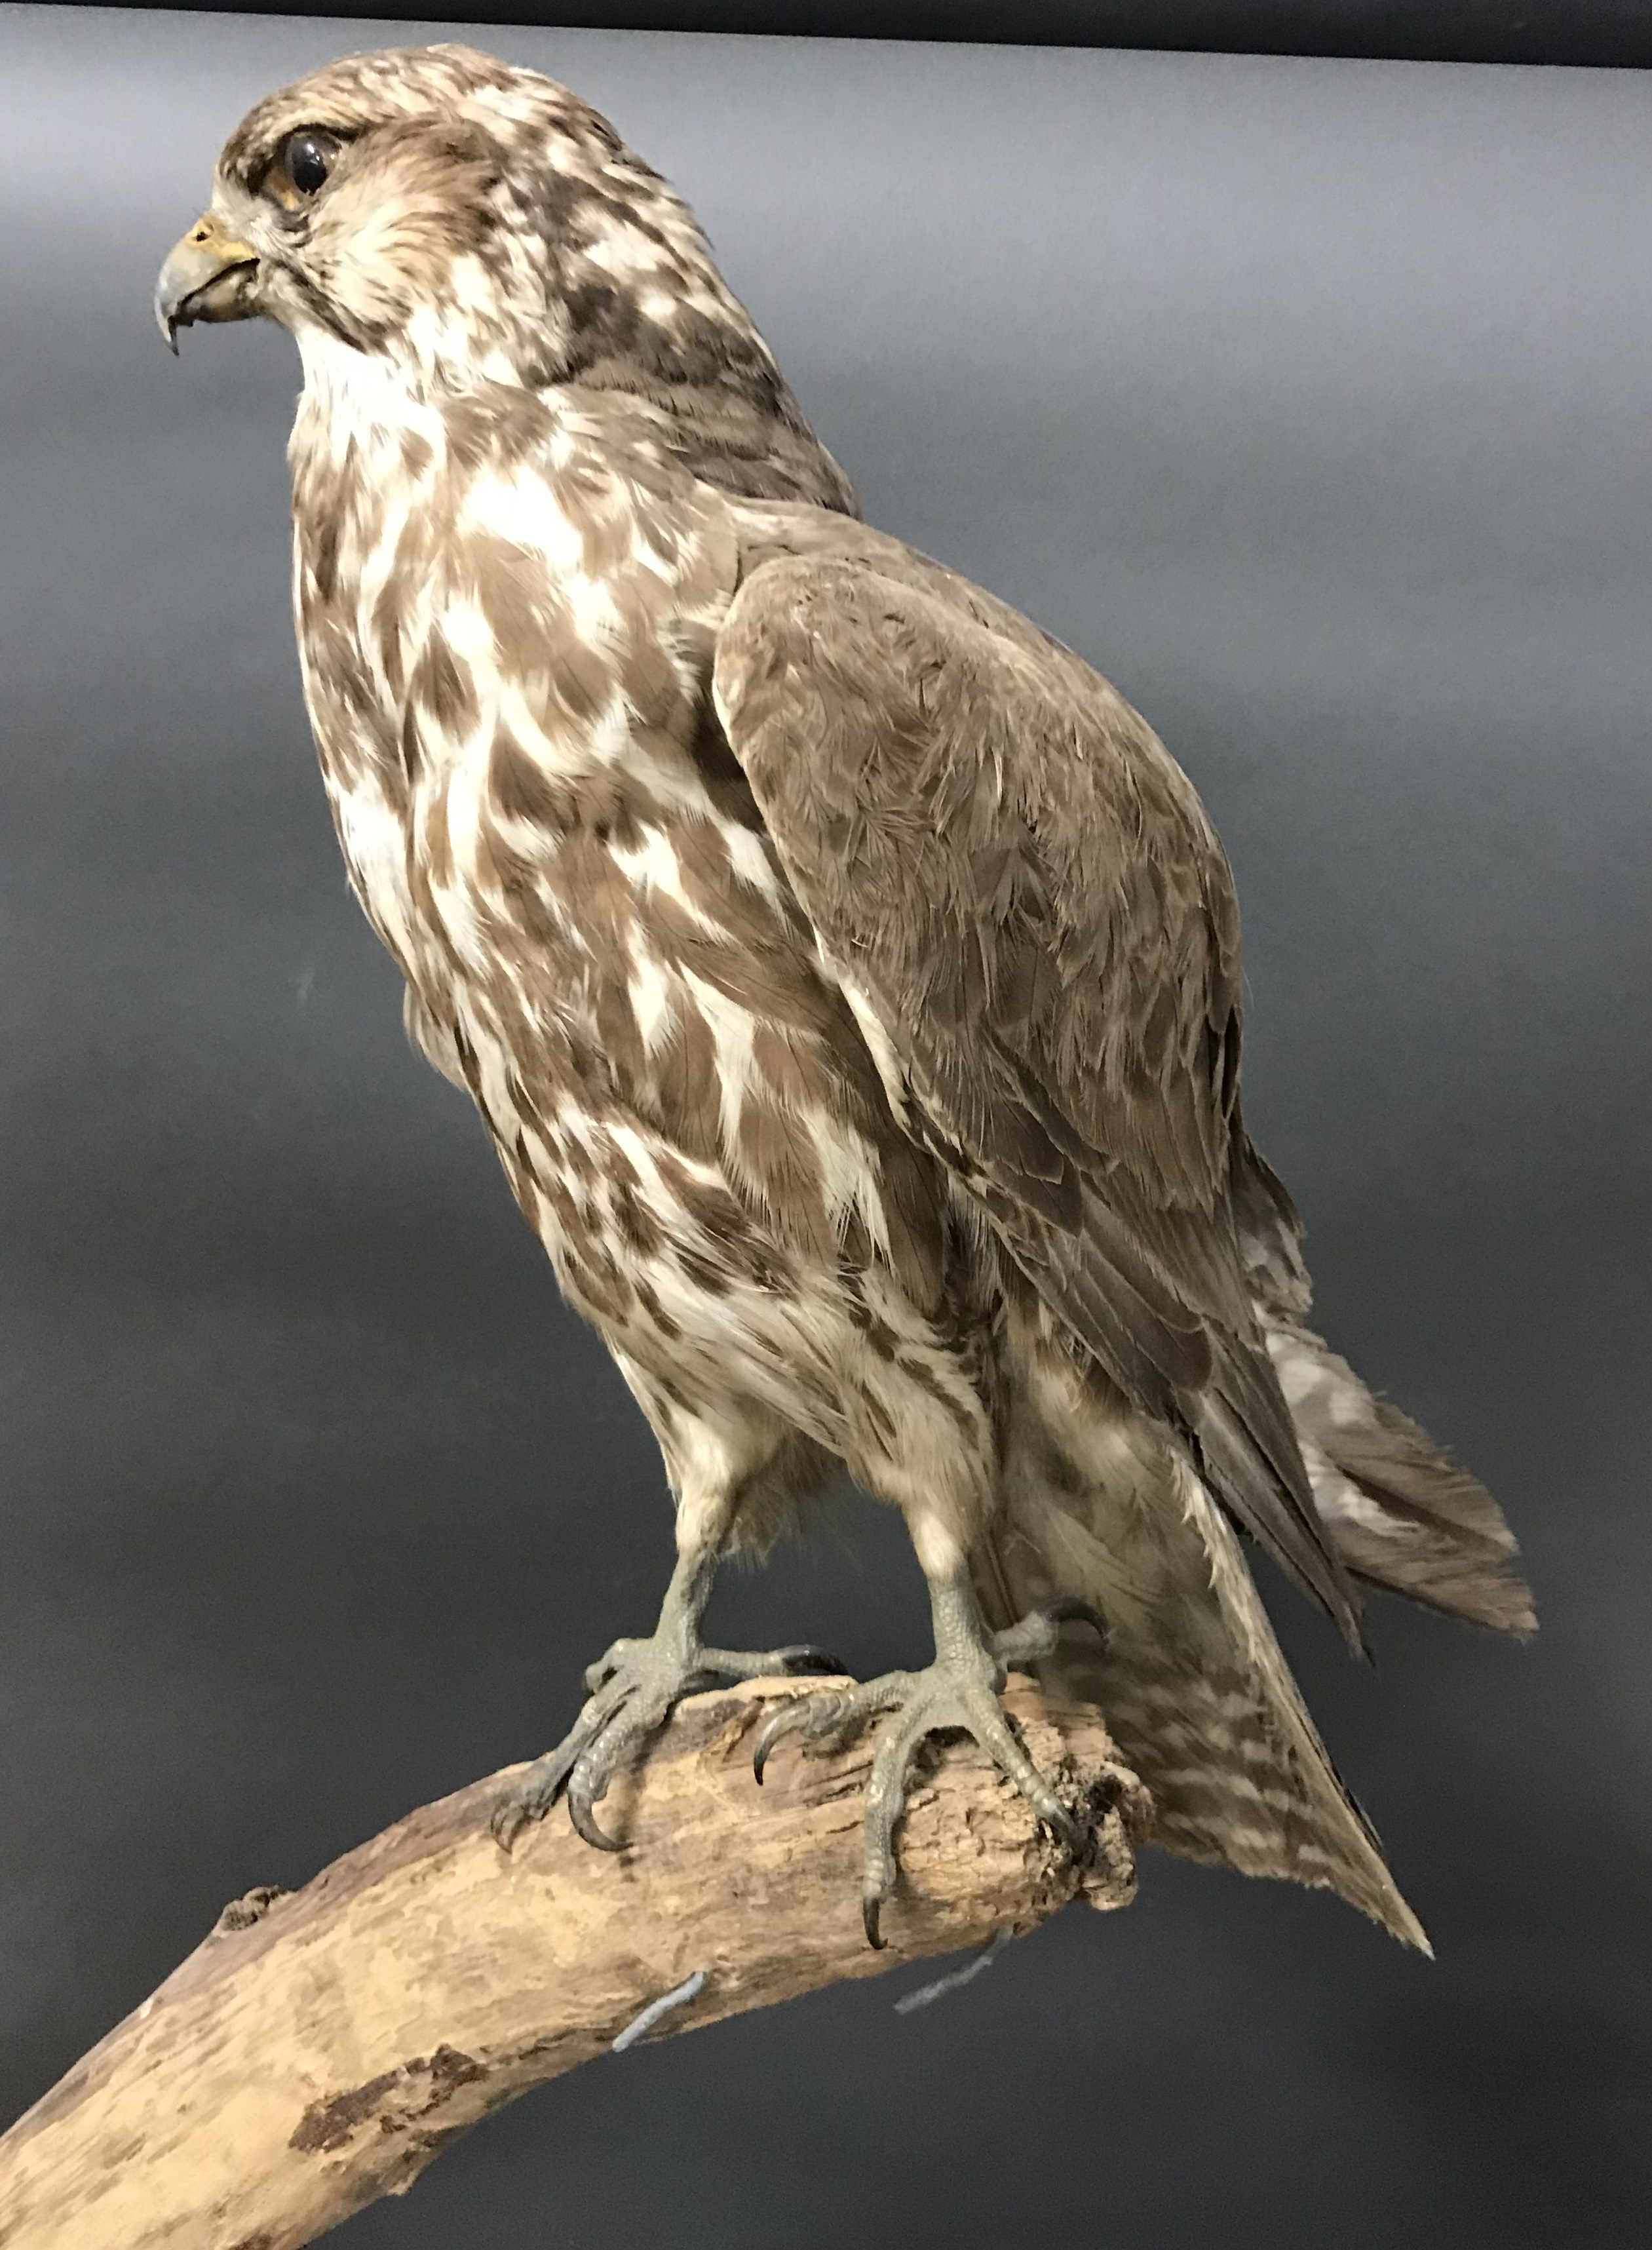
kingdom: Animalia
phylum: Chordata
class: Aves
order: Falconiformes
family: Falconidae
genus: Falco
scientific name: Falco cherrug
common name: Saker falcon
